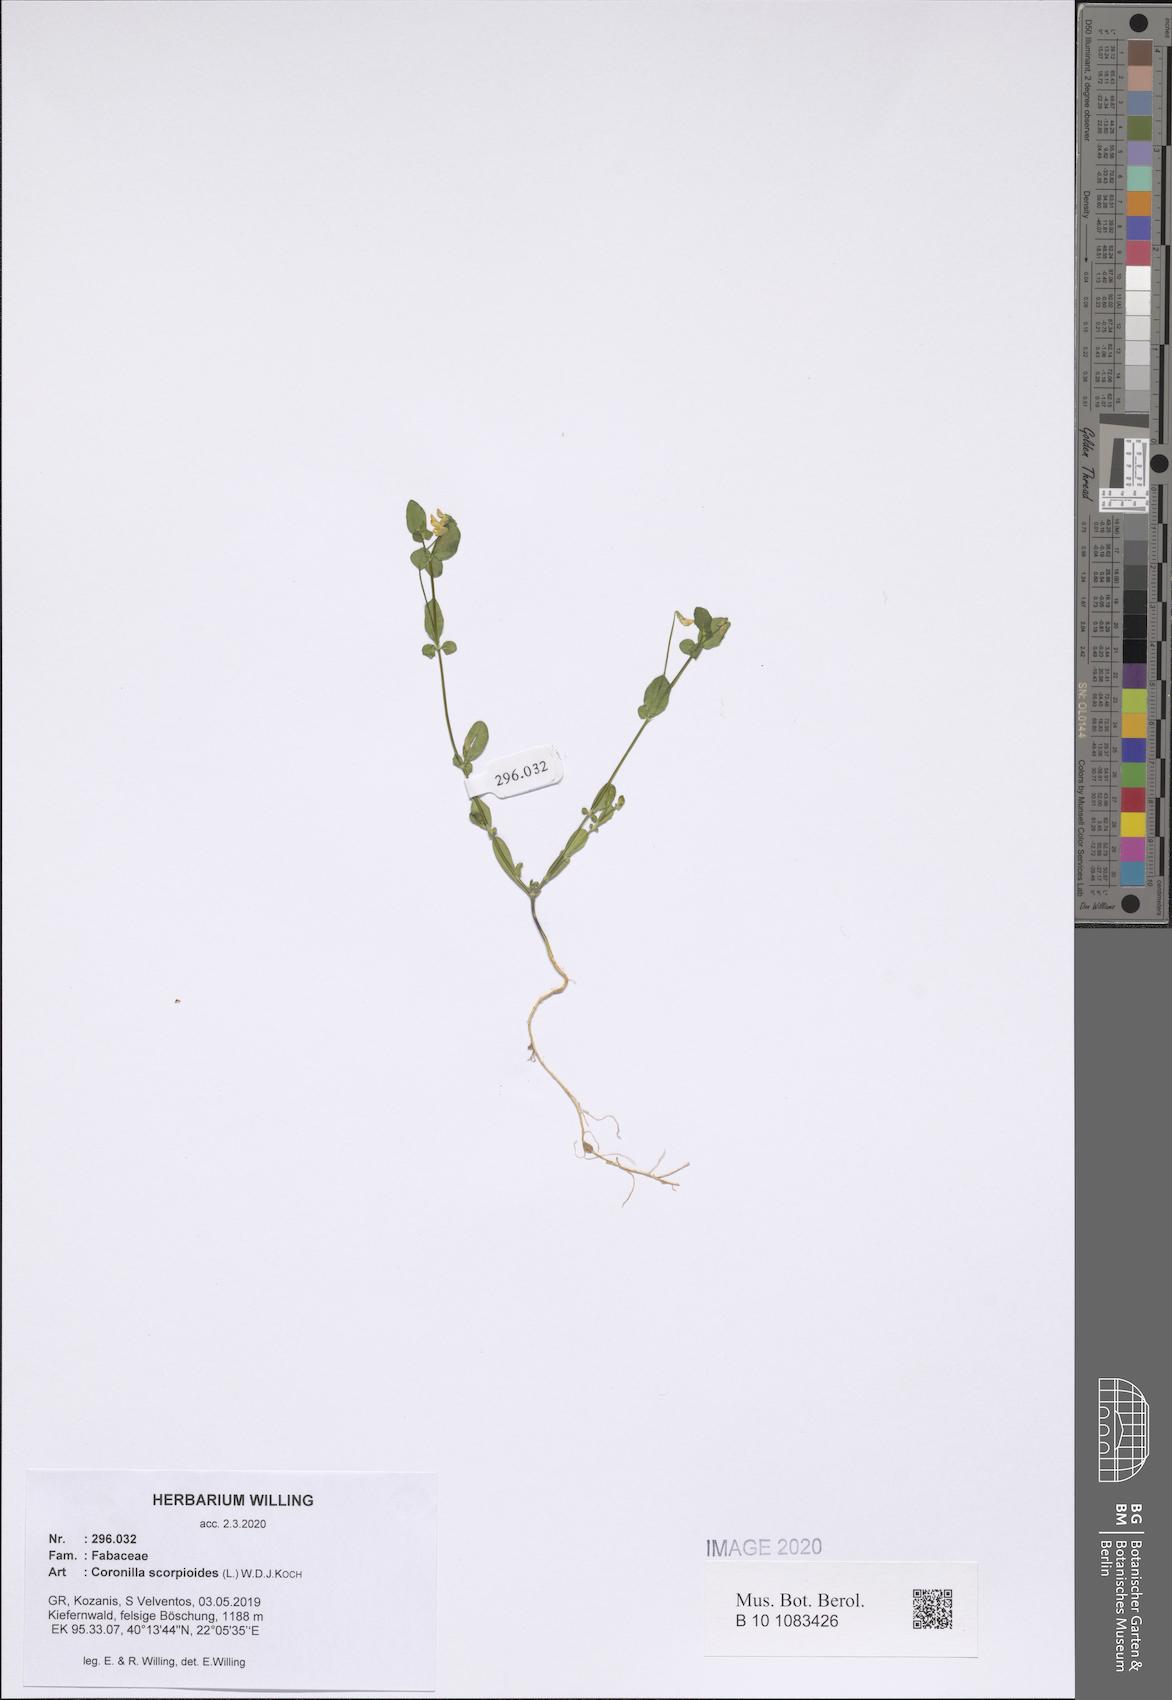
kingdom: Plantae
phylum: Tracheophyta
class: Magnoliopsida
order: Fabales
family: Fabaceae
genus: Coronilla
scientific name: Coronilla scorpioides
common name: Annual scorpion-vetch
